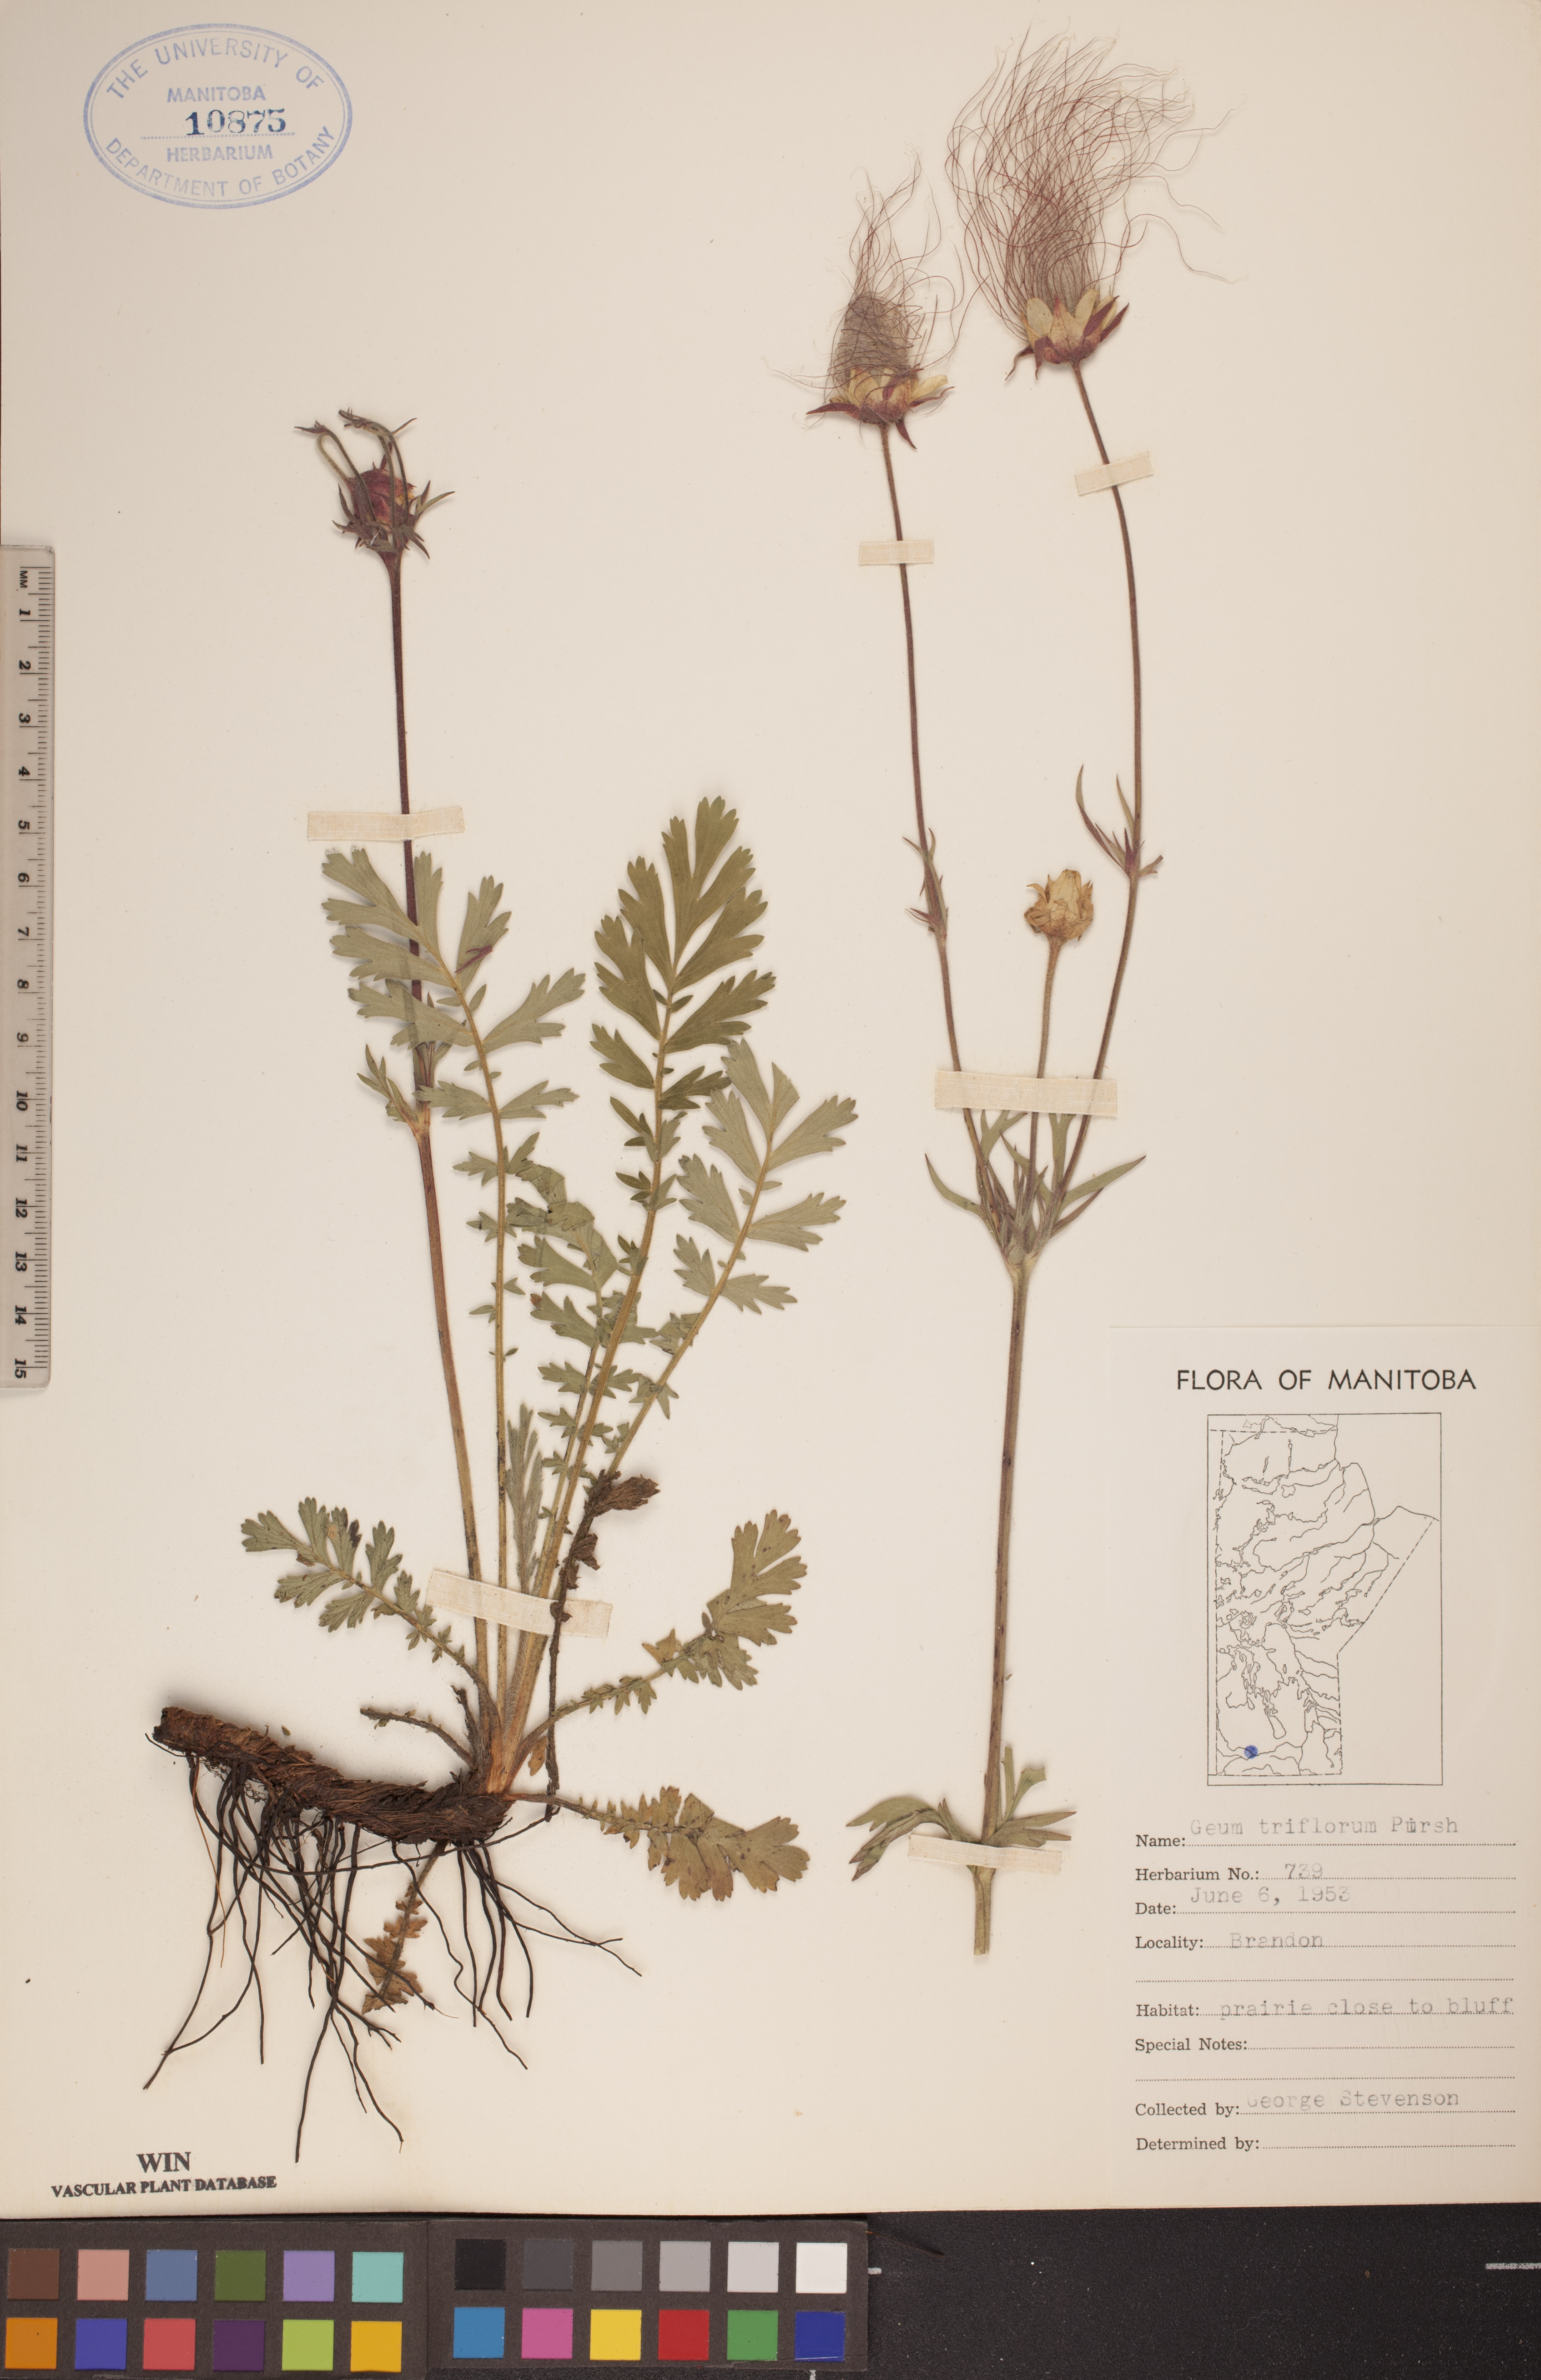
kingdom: Plantae
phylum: Tracheophyta
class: Magnoliopsida
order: Rosales
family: Rosaceae
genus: Geum
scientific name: Geum triflorum
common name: Old man's whiskers
